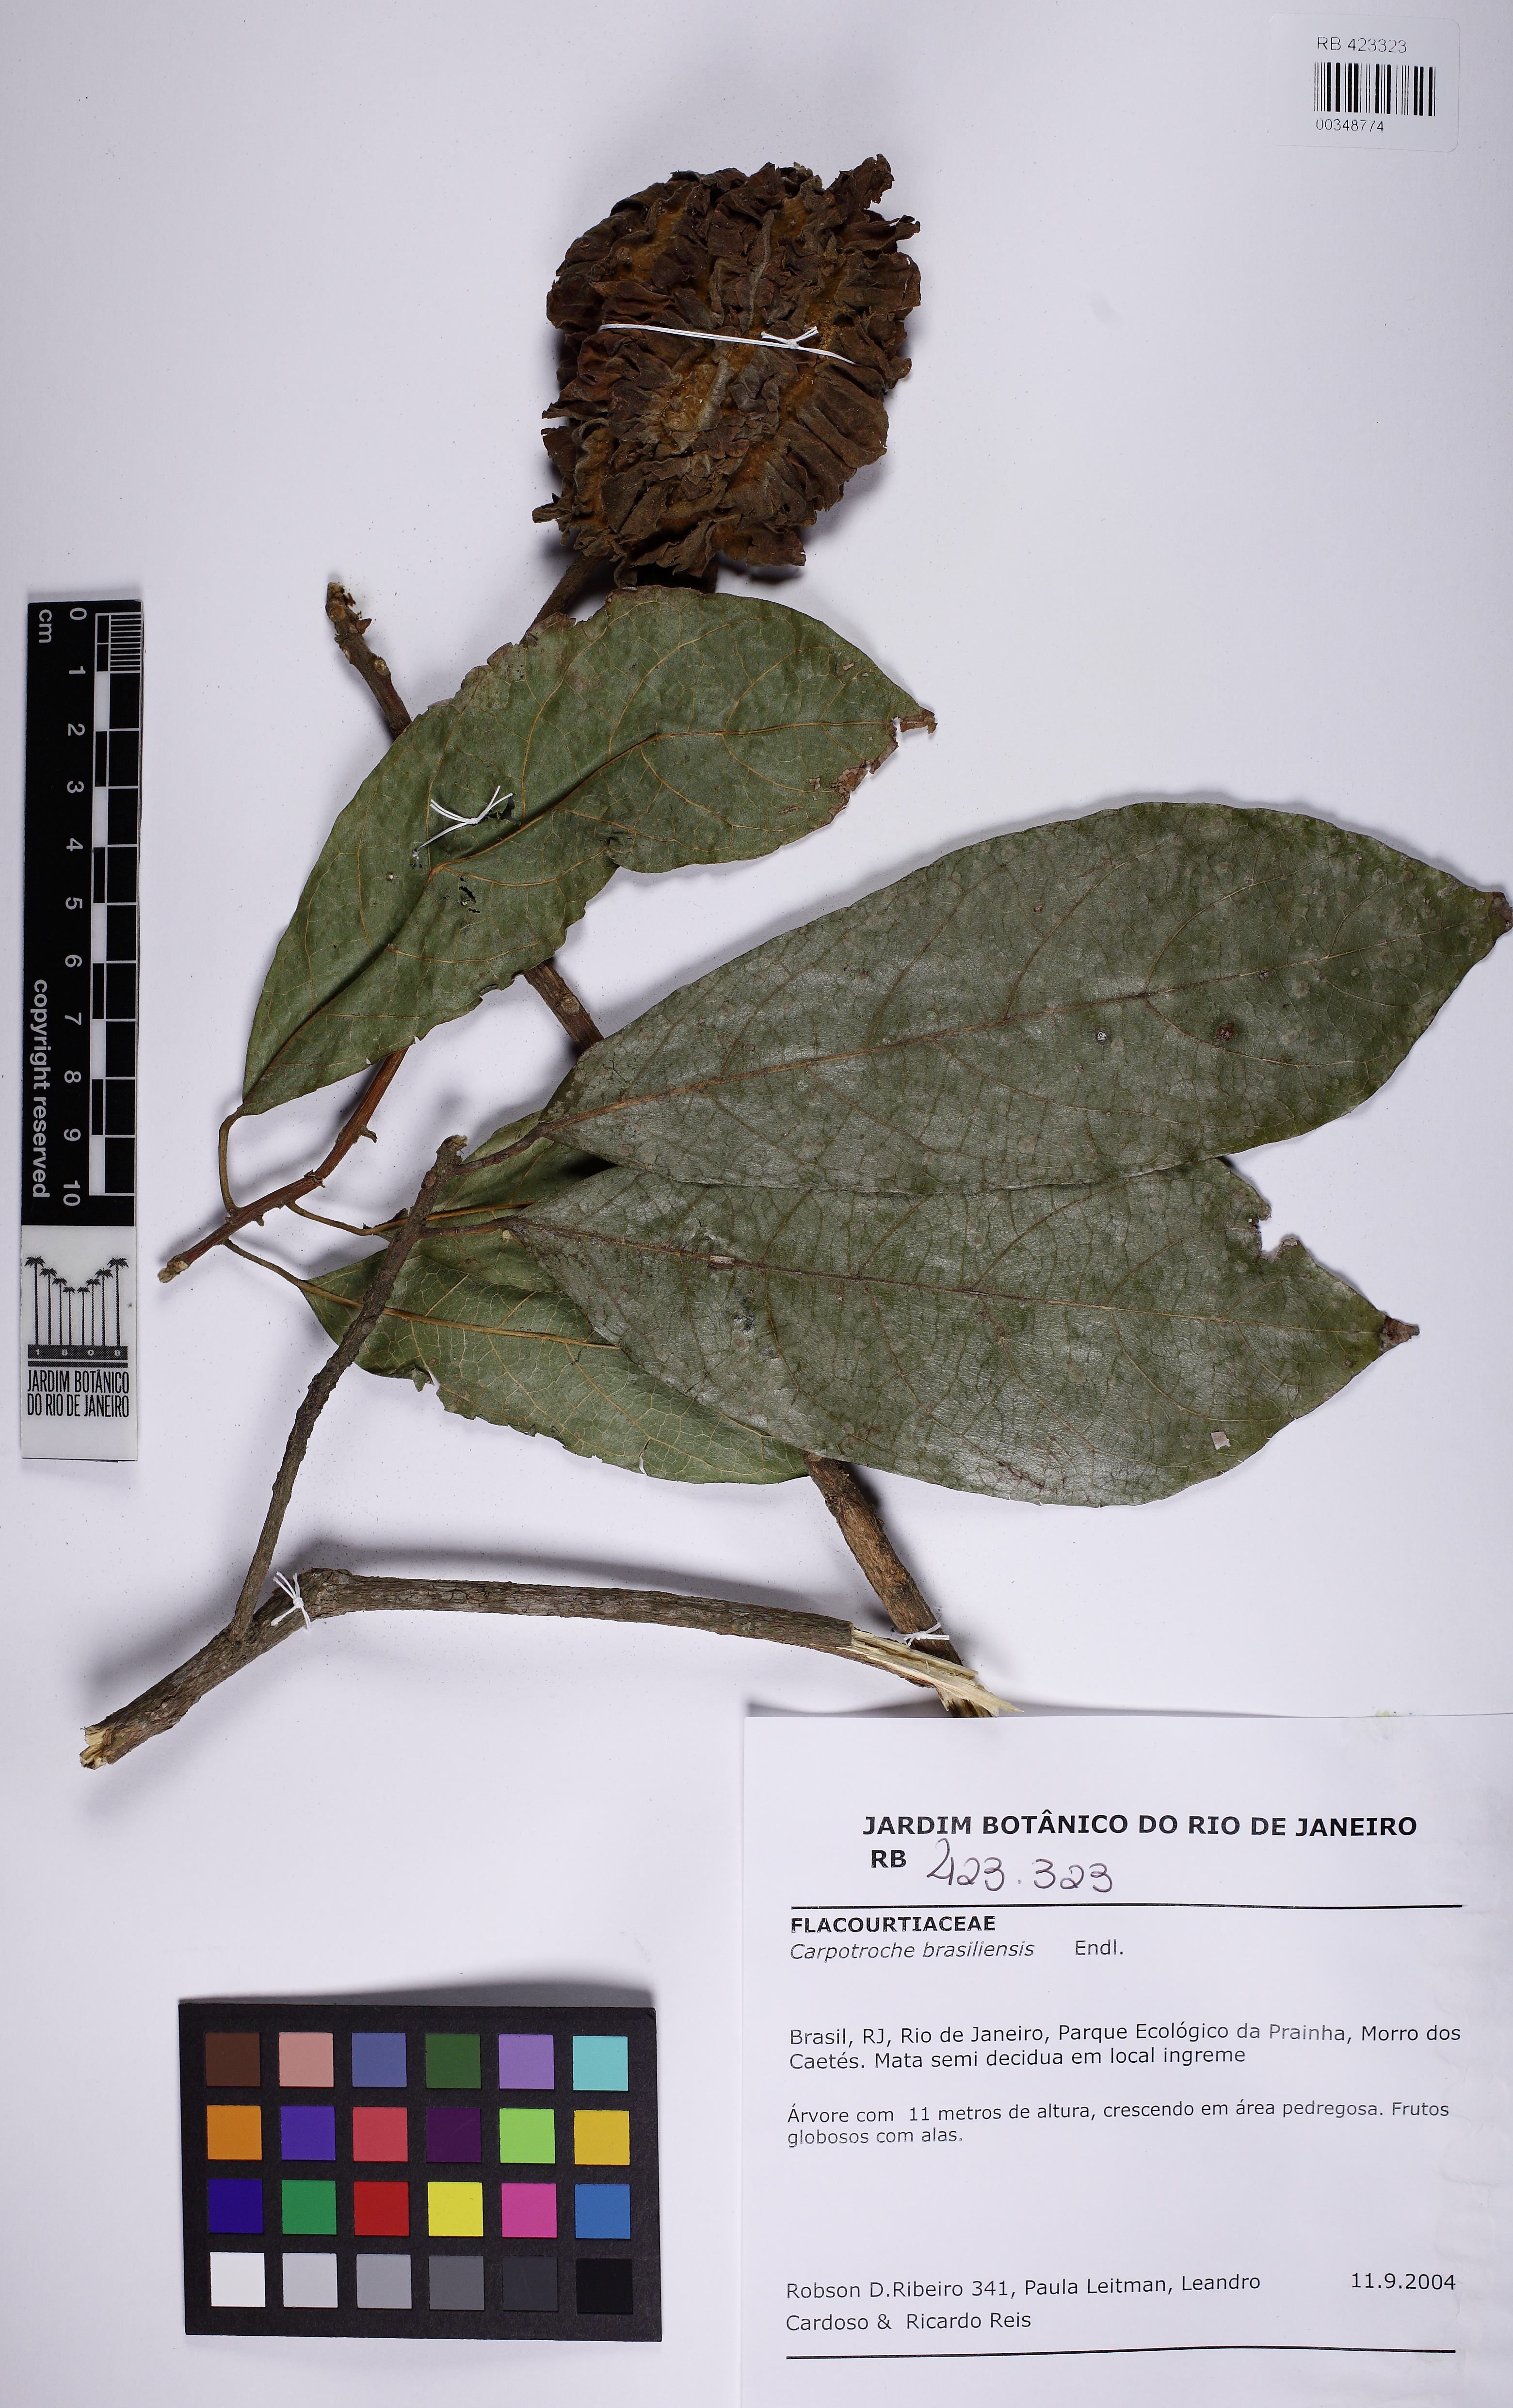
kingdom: Plantae
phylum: Tracheophyta
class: Magnoliopsida
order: Malpighiales
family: Achariaceae
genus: Carpotroche
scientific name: Carpotroche brasiliensis
